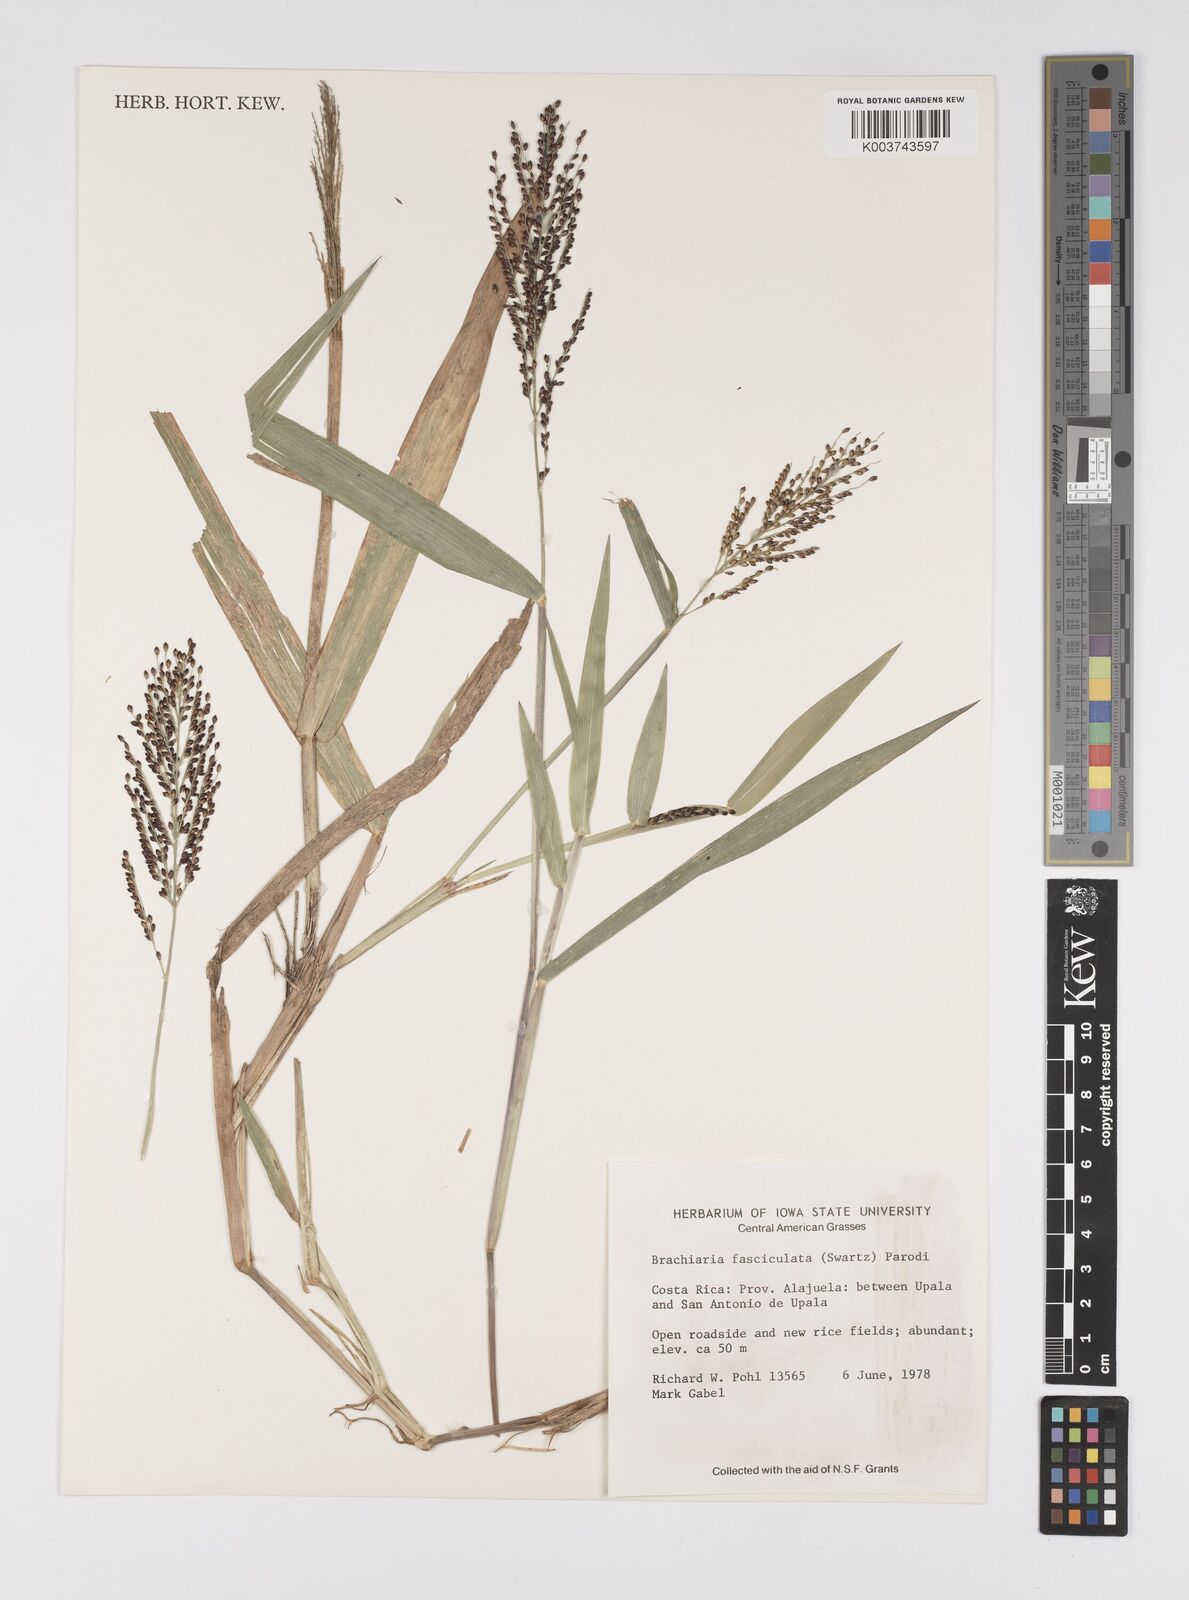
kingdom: Plantae
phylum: Tracheophyta
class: Liliopsida
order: Poales
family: Poaceae
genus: Urochloa
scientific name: Urochloa fusca
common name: Browntop signal grass
